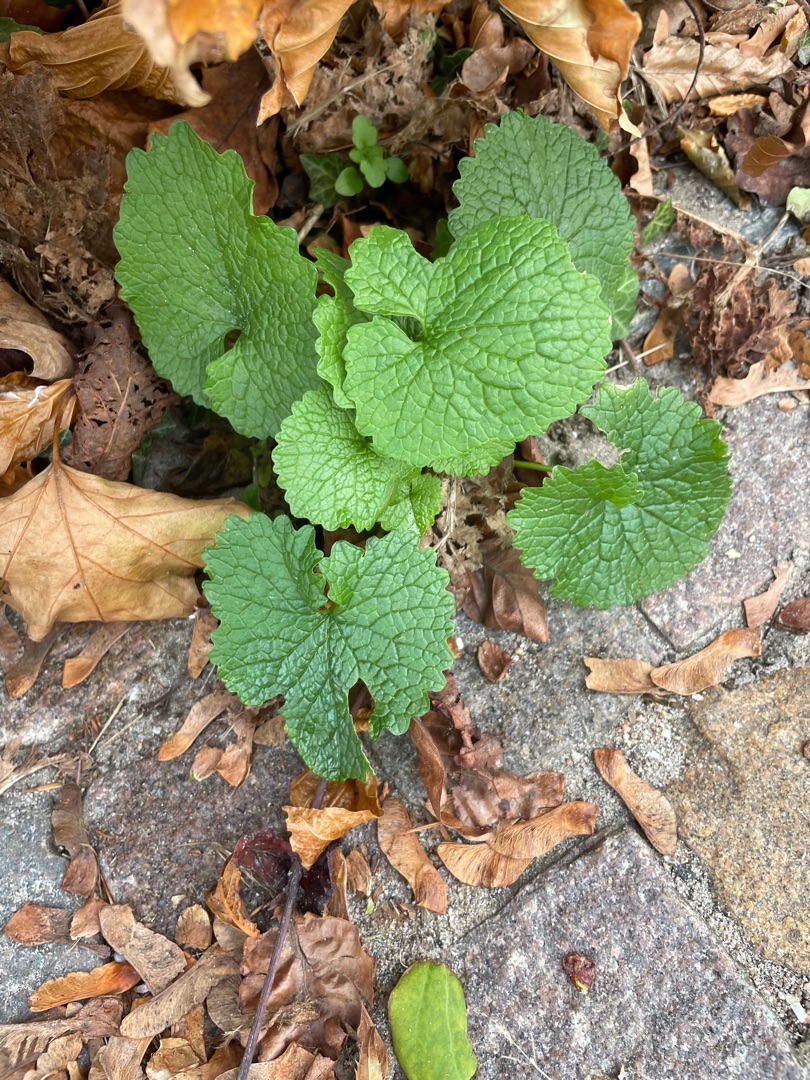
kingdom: Plantae
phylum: Tracheophyta
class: Magnoliopsida
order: Brassicales
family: Brassicaceae
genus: Alliaria
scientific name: Alliaria petiolata
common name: Løgkarse
